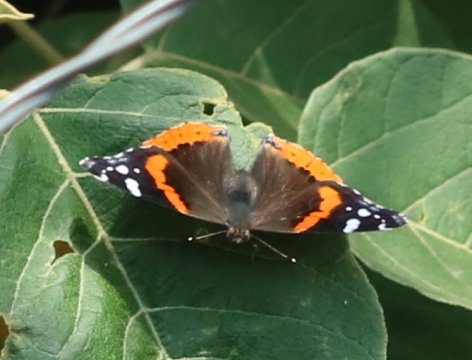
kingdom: Animalia
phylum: Arthropoda
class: Insecta
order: Lepidoptera
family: Nymphalidae
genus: Vanessa
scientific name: Vanessa atalanta
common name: Red Admiral
